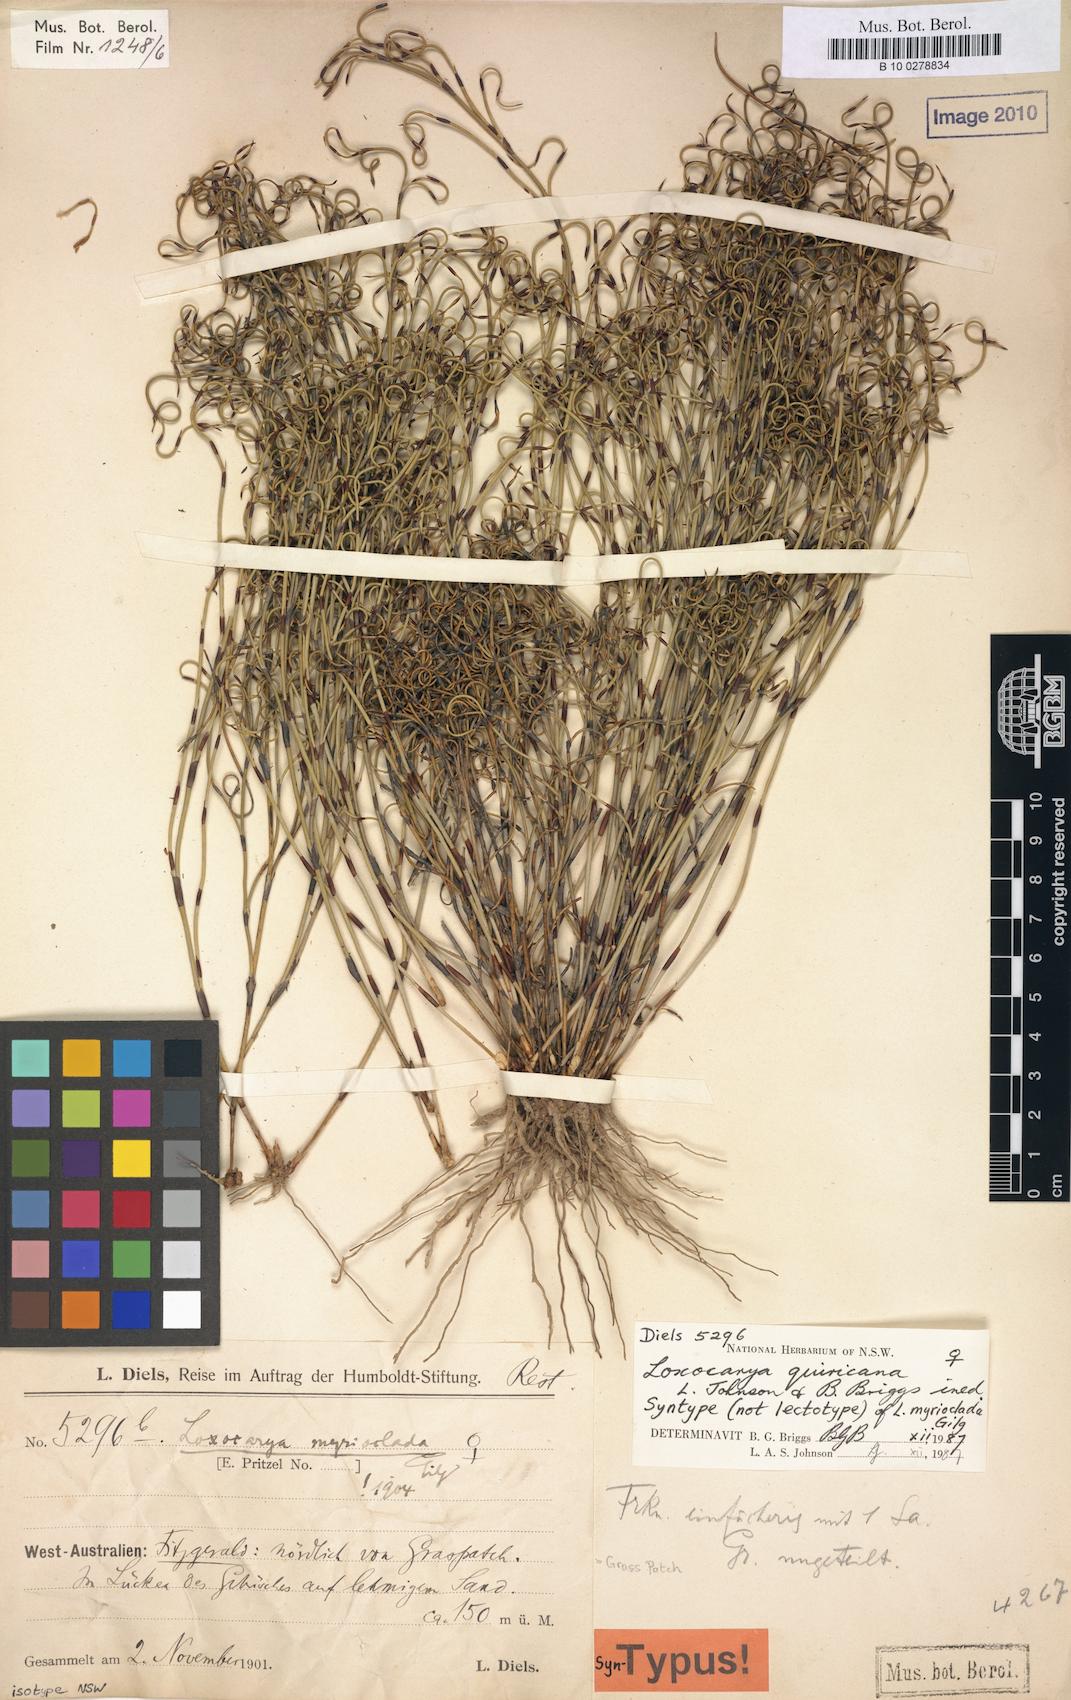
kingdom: Plantae
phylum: Tracheophyta
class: Liliopsida
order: Poales
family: Restionaceae
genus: Loxocarya
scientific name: Loxocarya myrioclada
